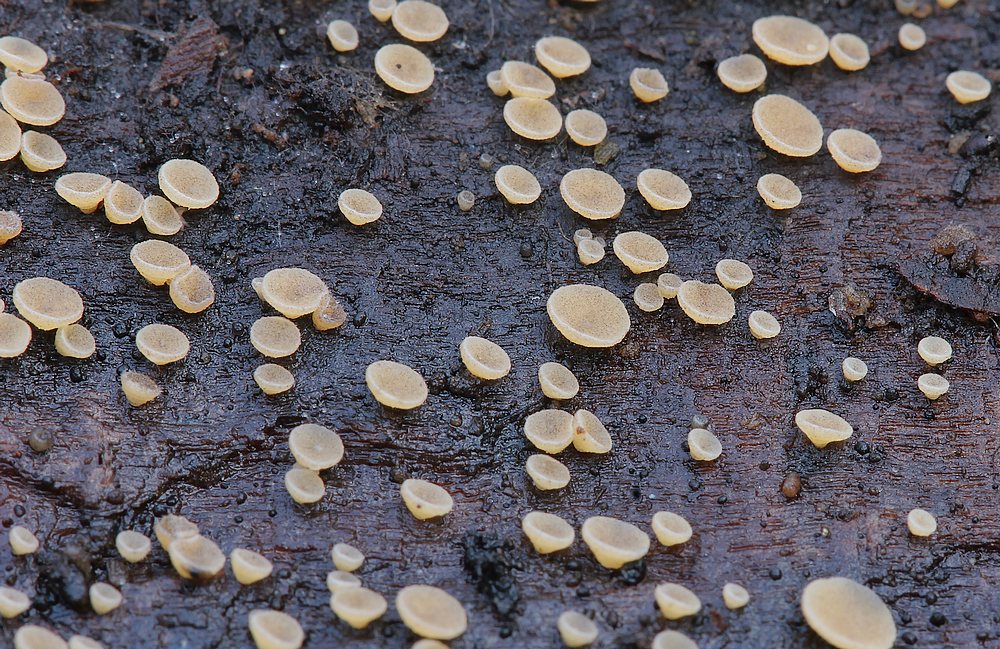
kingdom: Fungi
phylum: Ascomycota
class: Leotiomycetes
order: Helotiales
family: Helotiaceae
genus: Bisporella
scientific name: Bisporella subpallida
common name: lys snitskive
